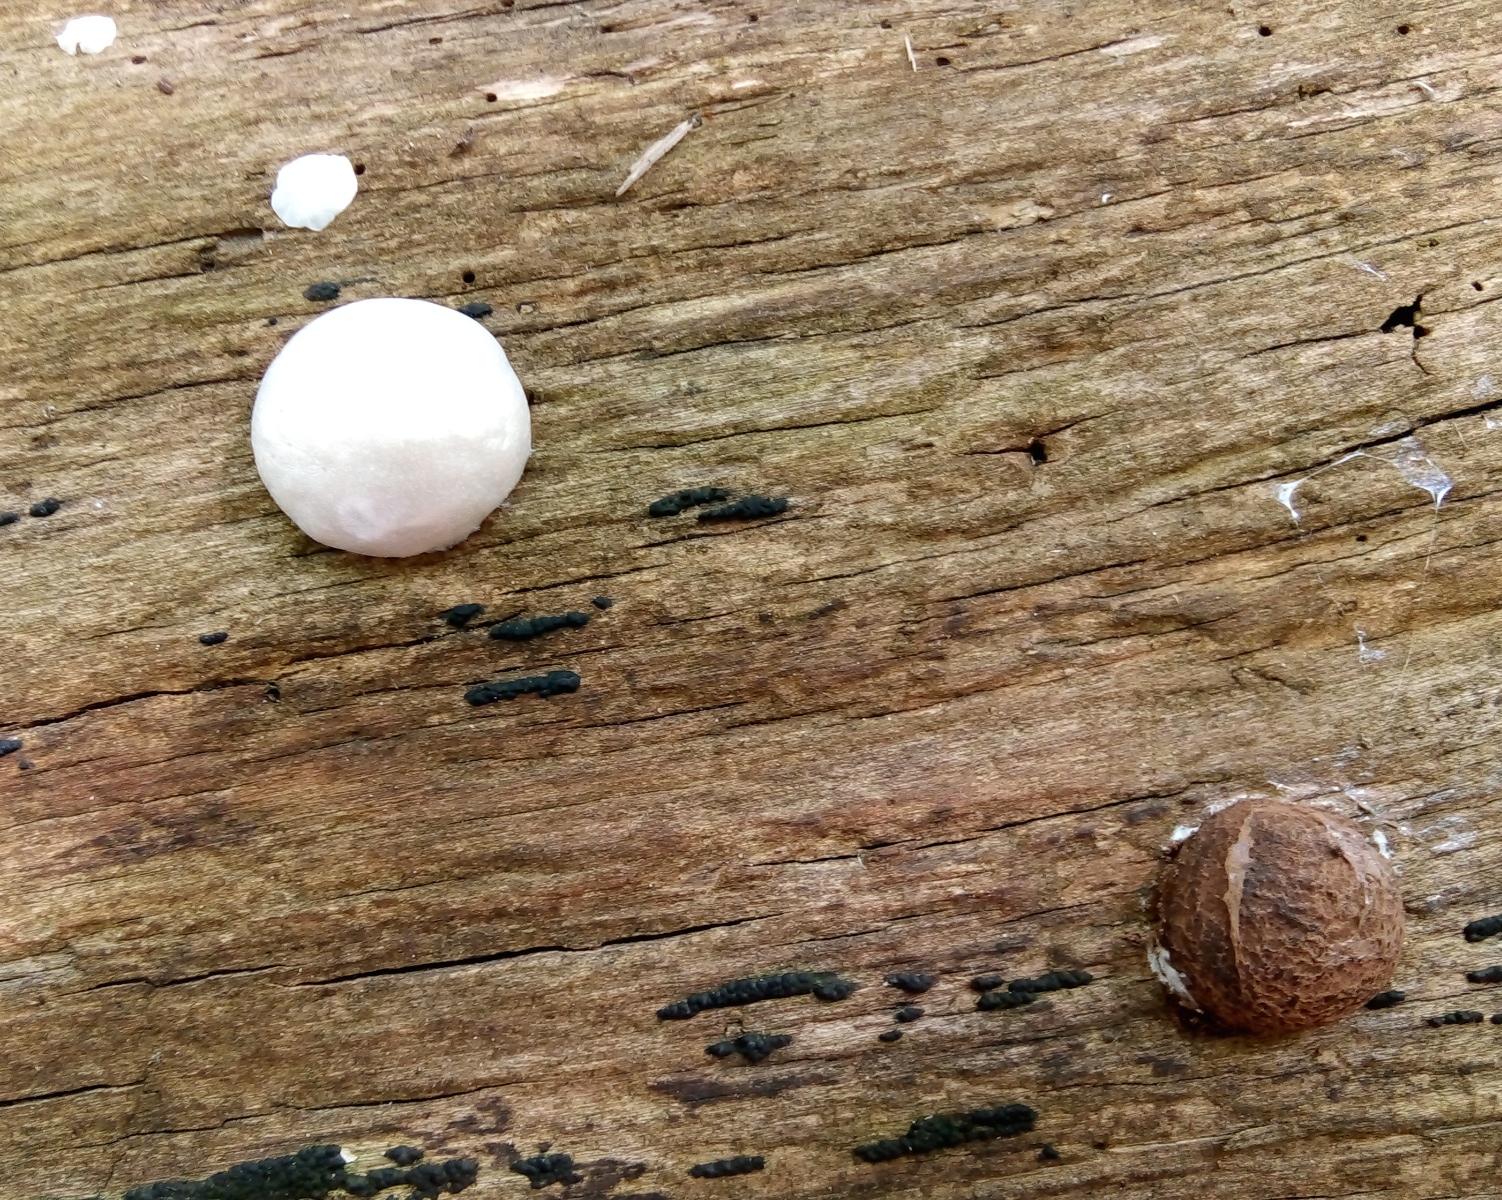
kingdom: Protozoa
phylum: Mycetozoa
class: Myxomycetes
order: Cribrariales
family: Tubiferaceae
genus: Reticularia
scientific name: Reticularia lycoperdon
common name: skinnende støvpude
